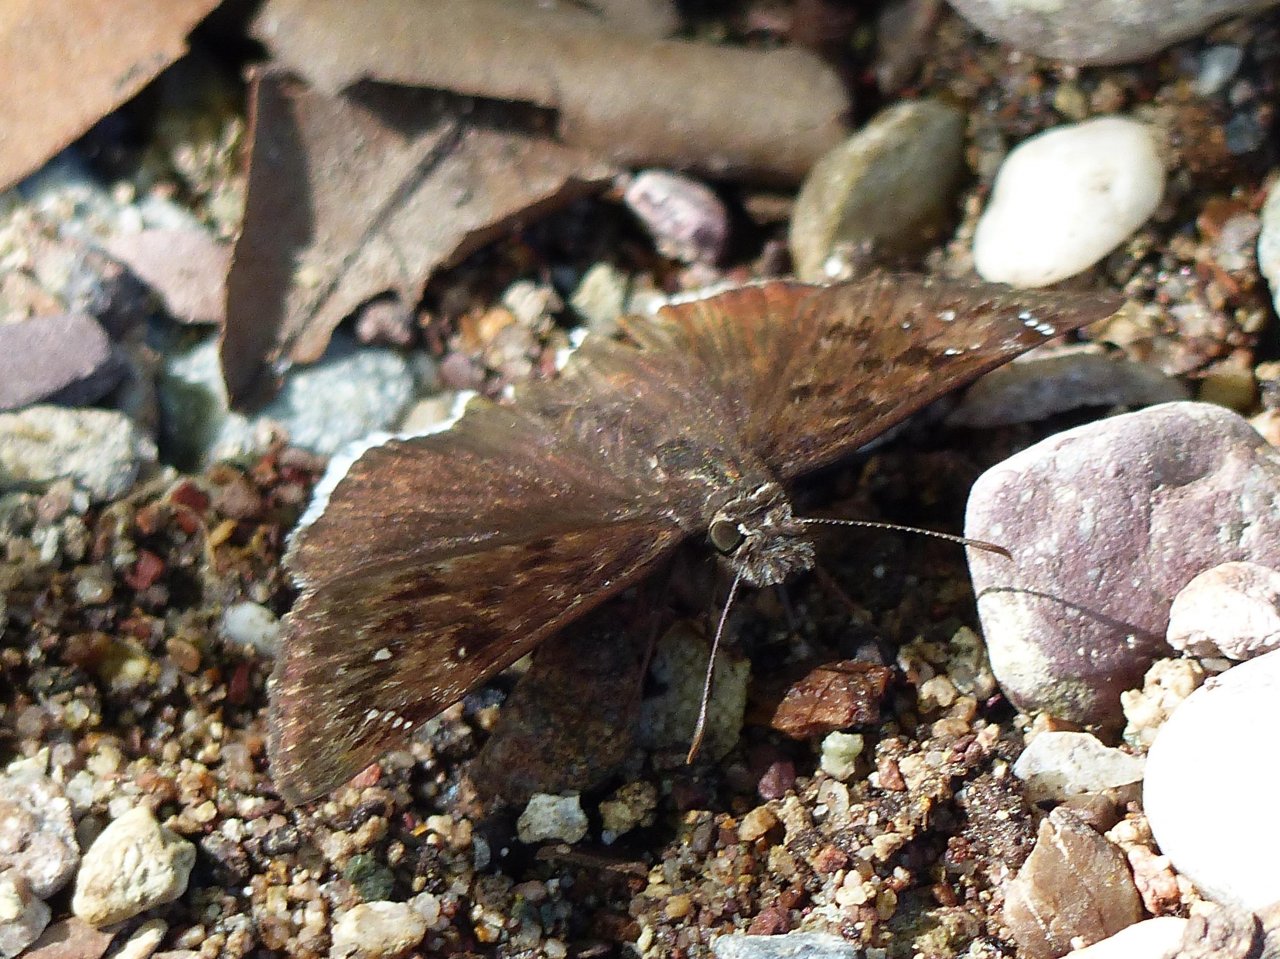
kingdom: Animalia
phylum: Arthropoda
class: Insecta
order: Lepidoptera
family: Hesperiidae
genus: Erynnis
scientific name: Erynnis pacuvius
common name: Pacuvius Duskywing
